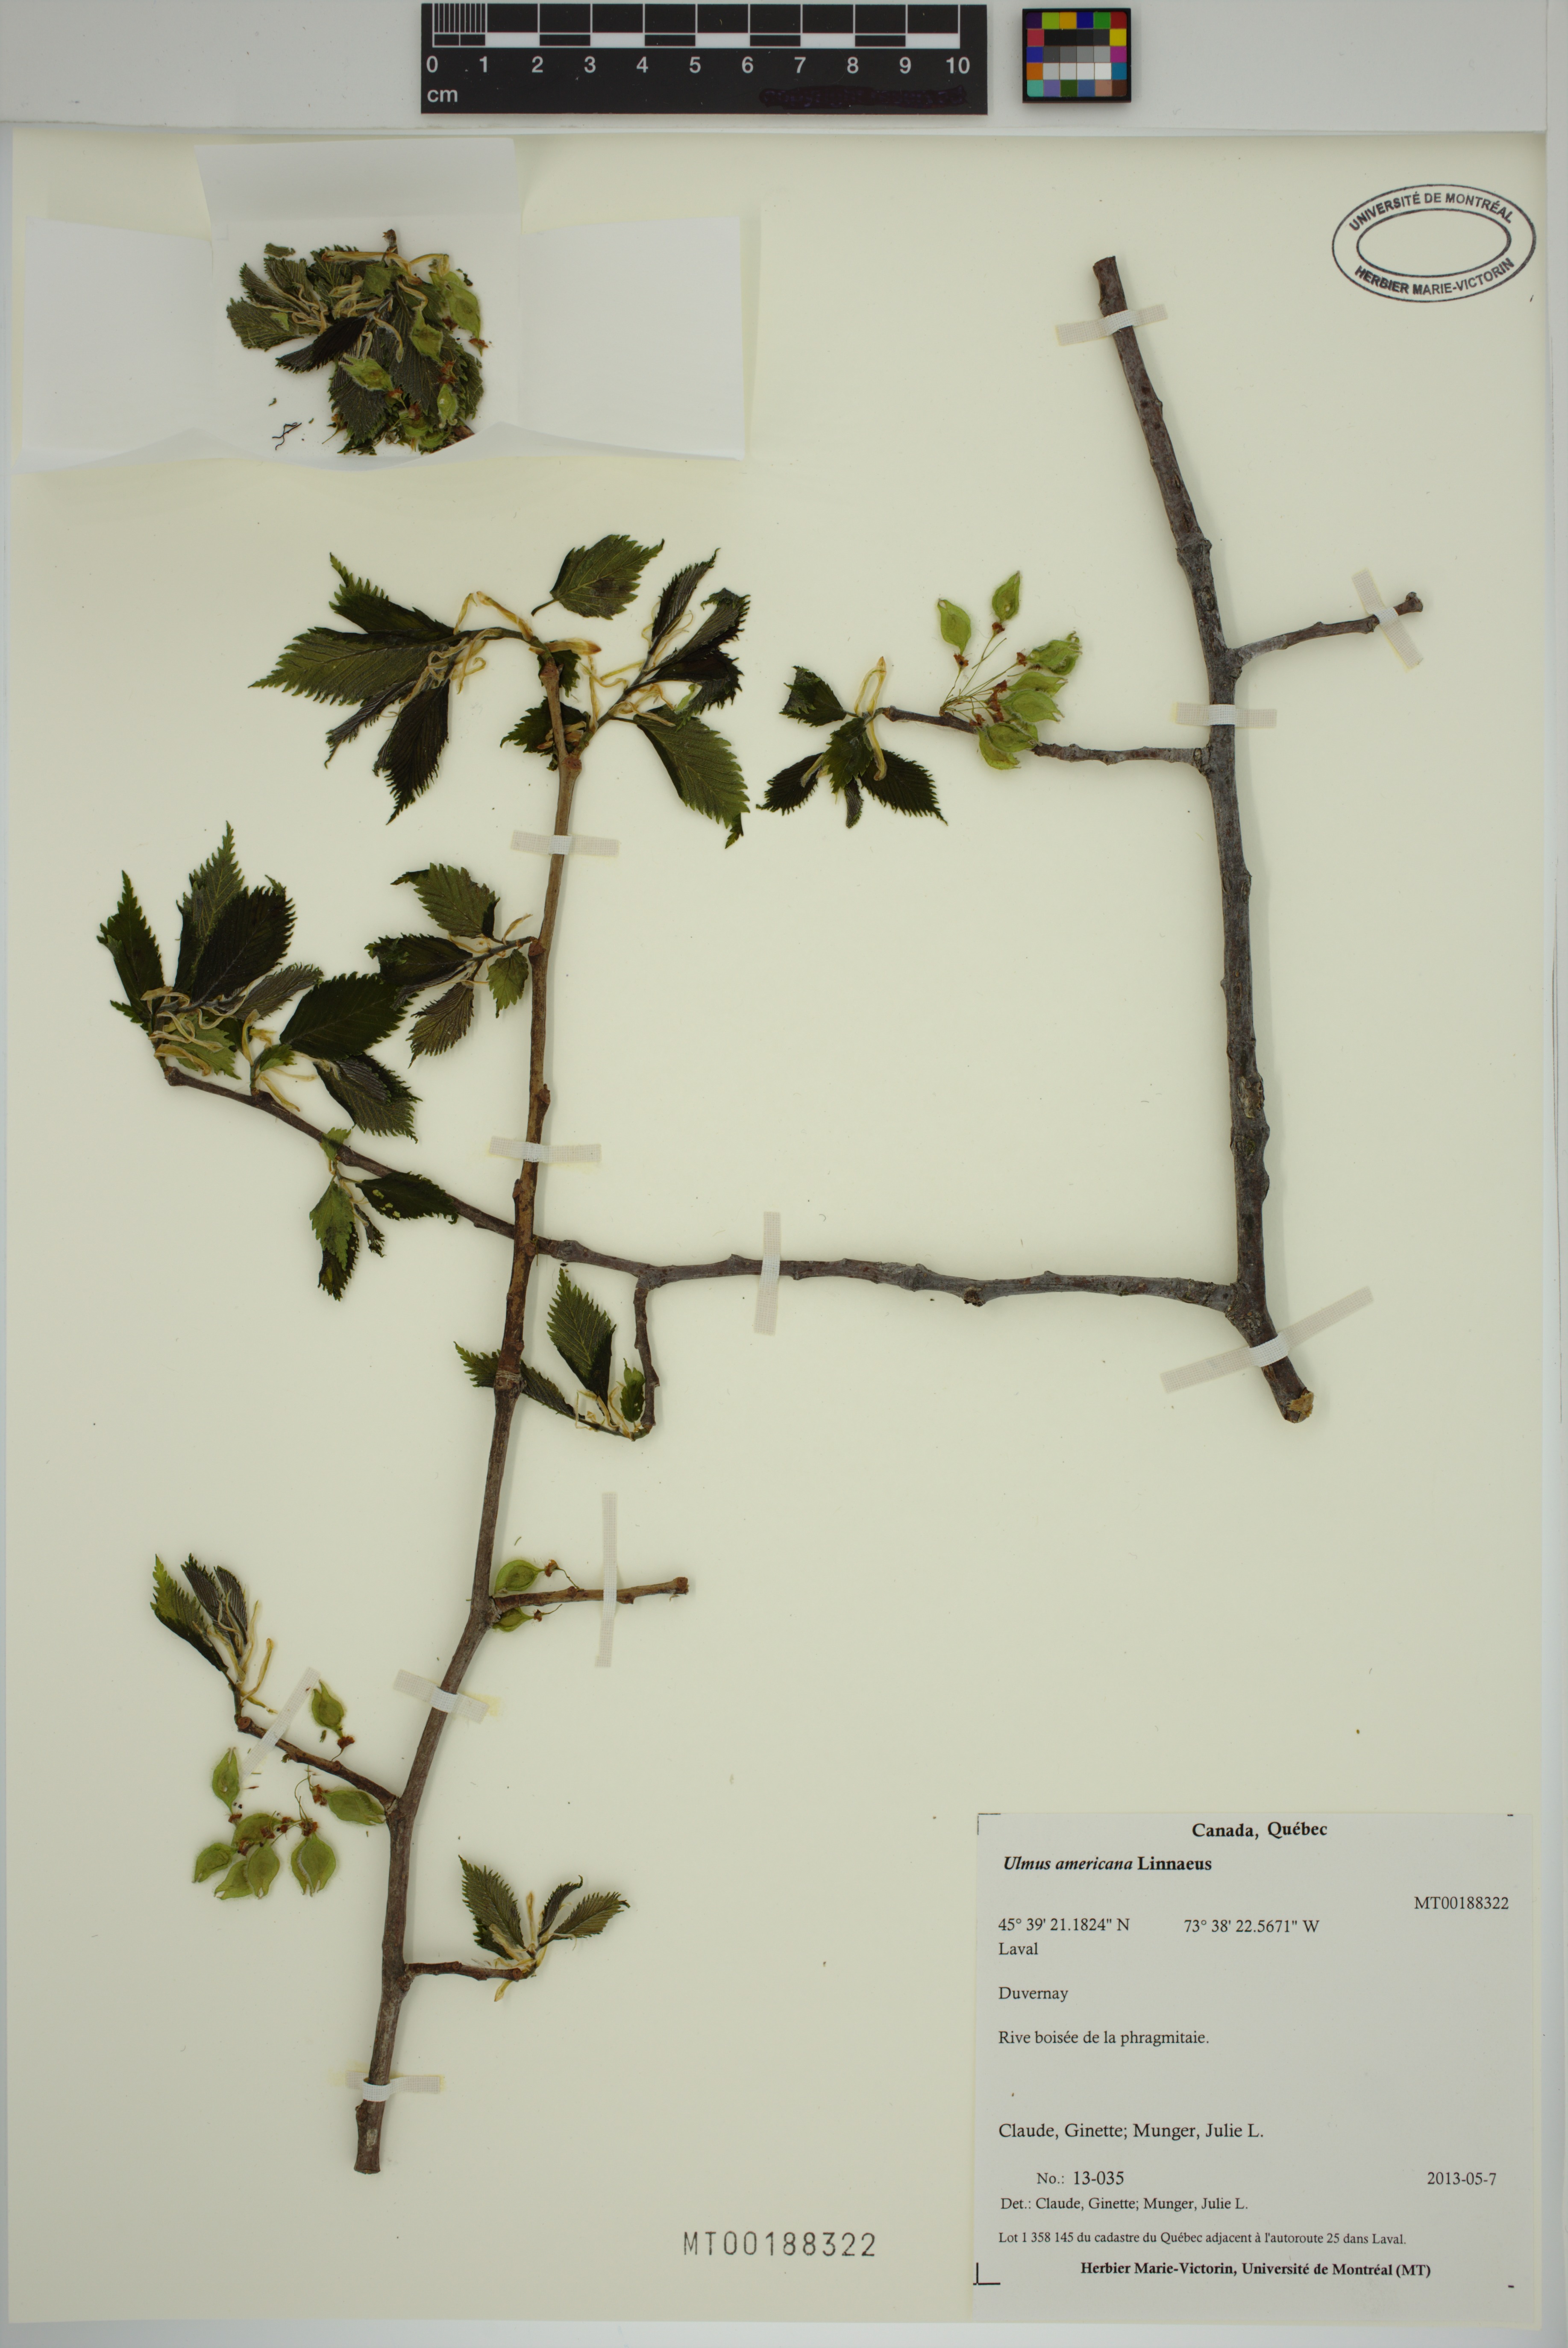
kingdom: Plantae
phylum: Tracheophyta
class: Magnoliopsida
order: Rosales
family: Ulmaceae
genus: Ulmus
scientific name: Ulmus americana
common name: American elm
